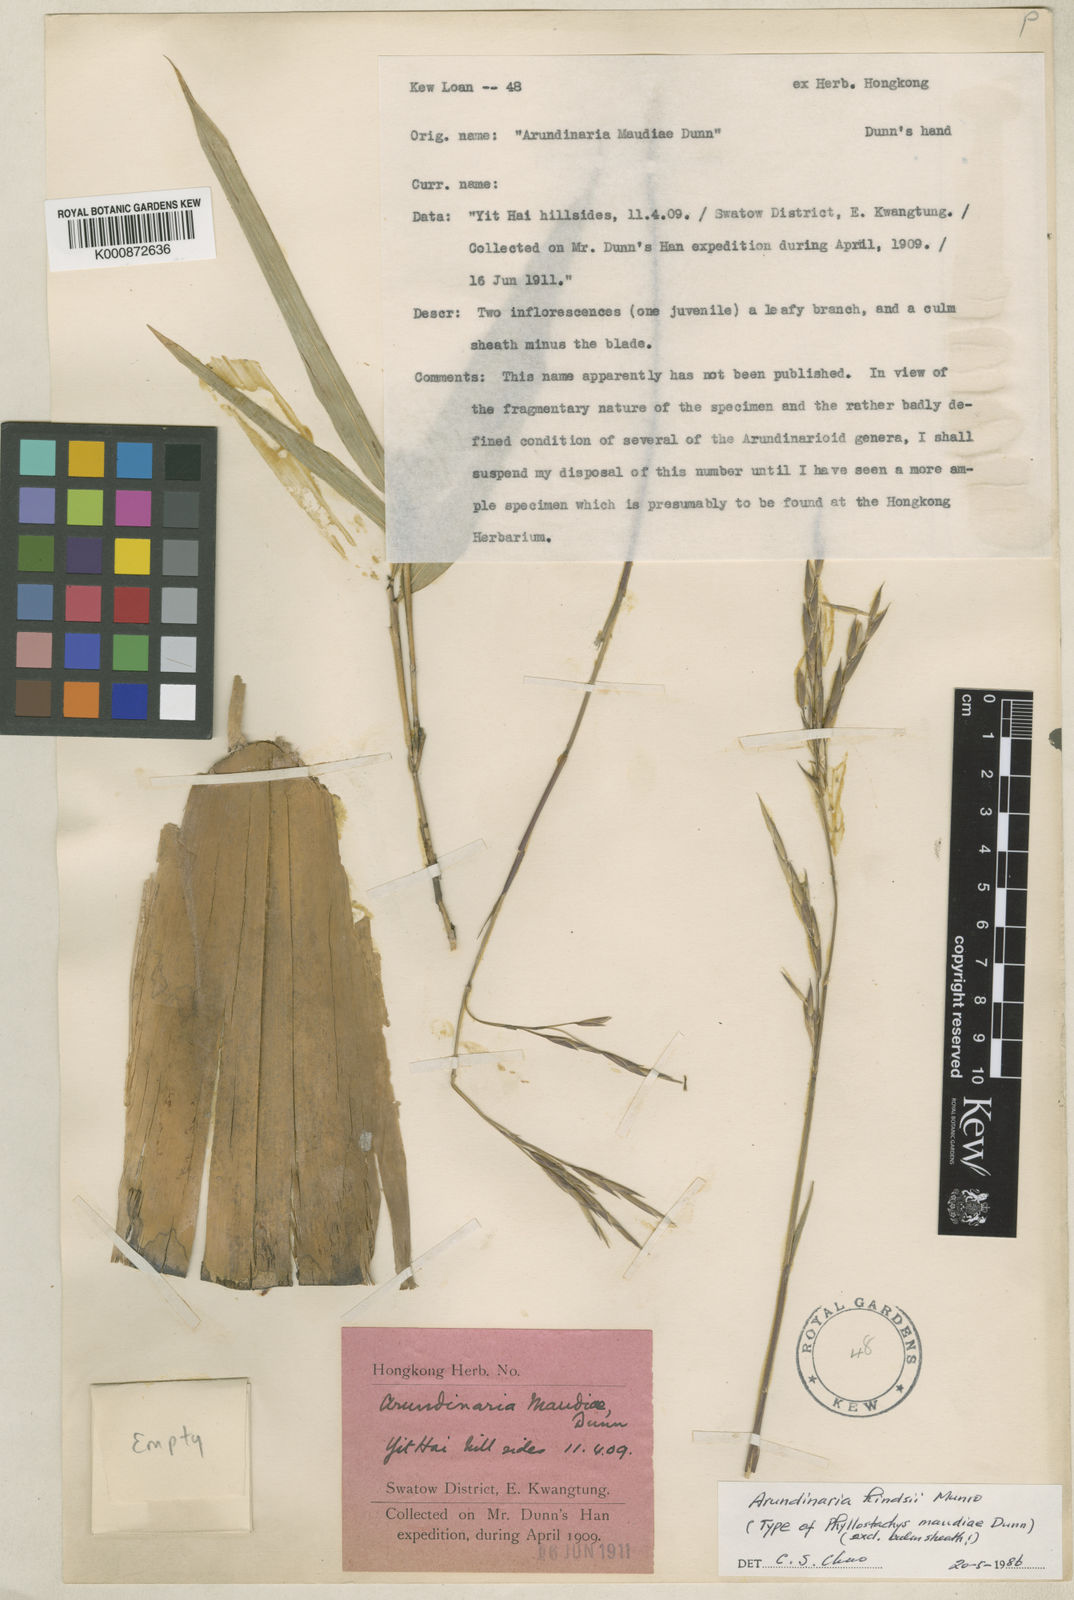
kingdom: Plantae
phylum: Tracheophyta
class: Liliopsida
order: Poales
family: Poaceae
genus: Pseudosasa
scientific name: Pseudosasa hindsii
